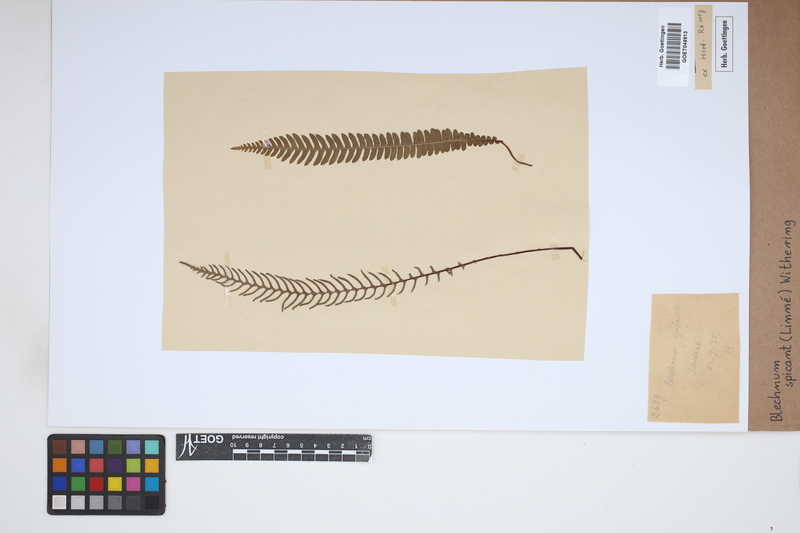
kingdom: Plantae
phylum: Tracheophyta
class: Polypodiopsida
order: Polypodiales
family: Blechnaceae
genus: Struthiopteris
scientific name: Struthiopteris spicant
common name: Deer fern
